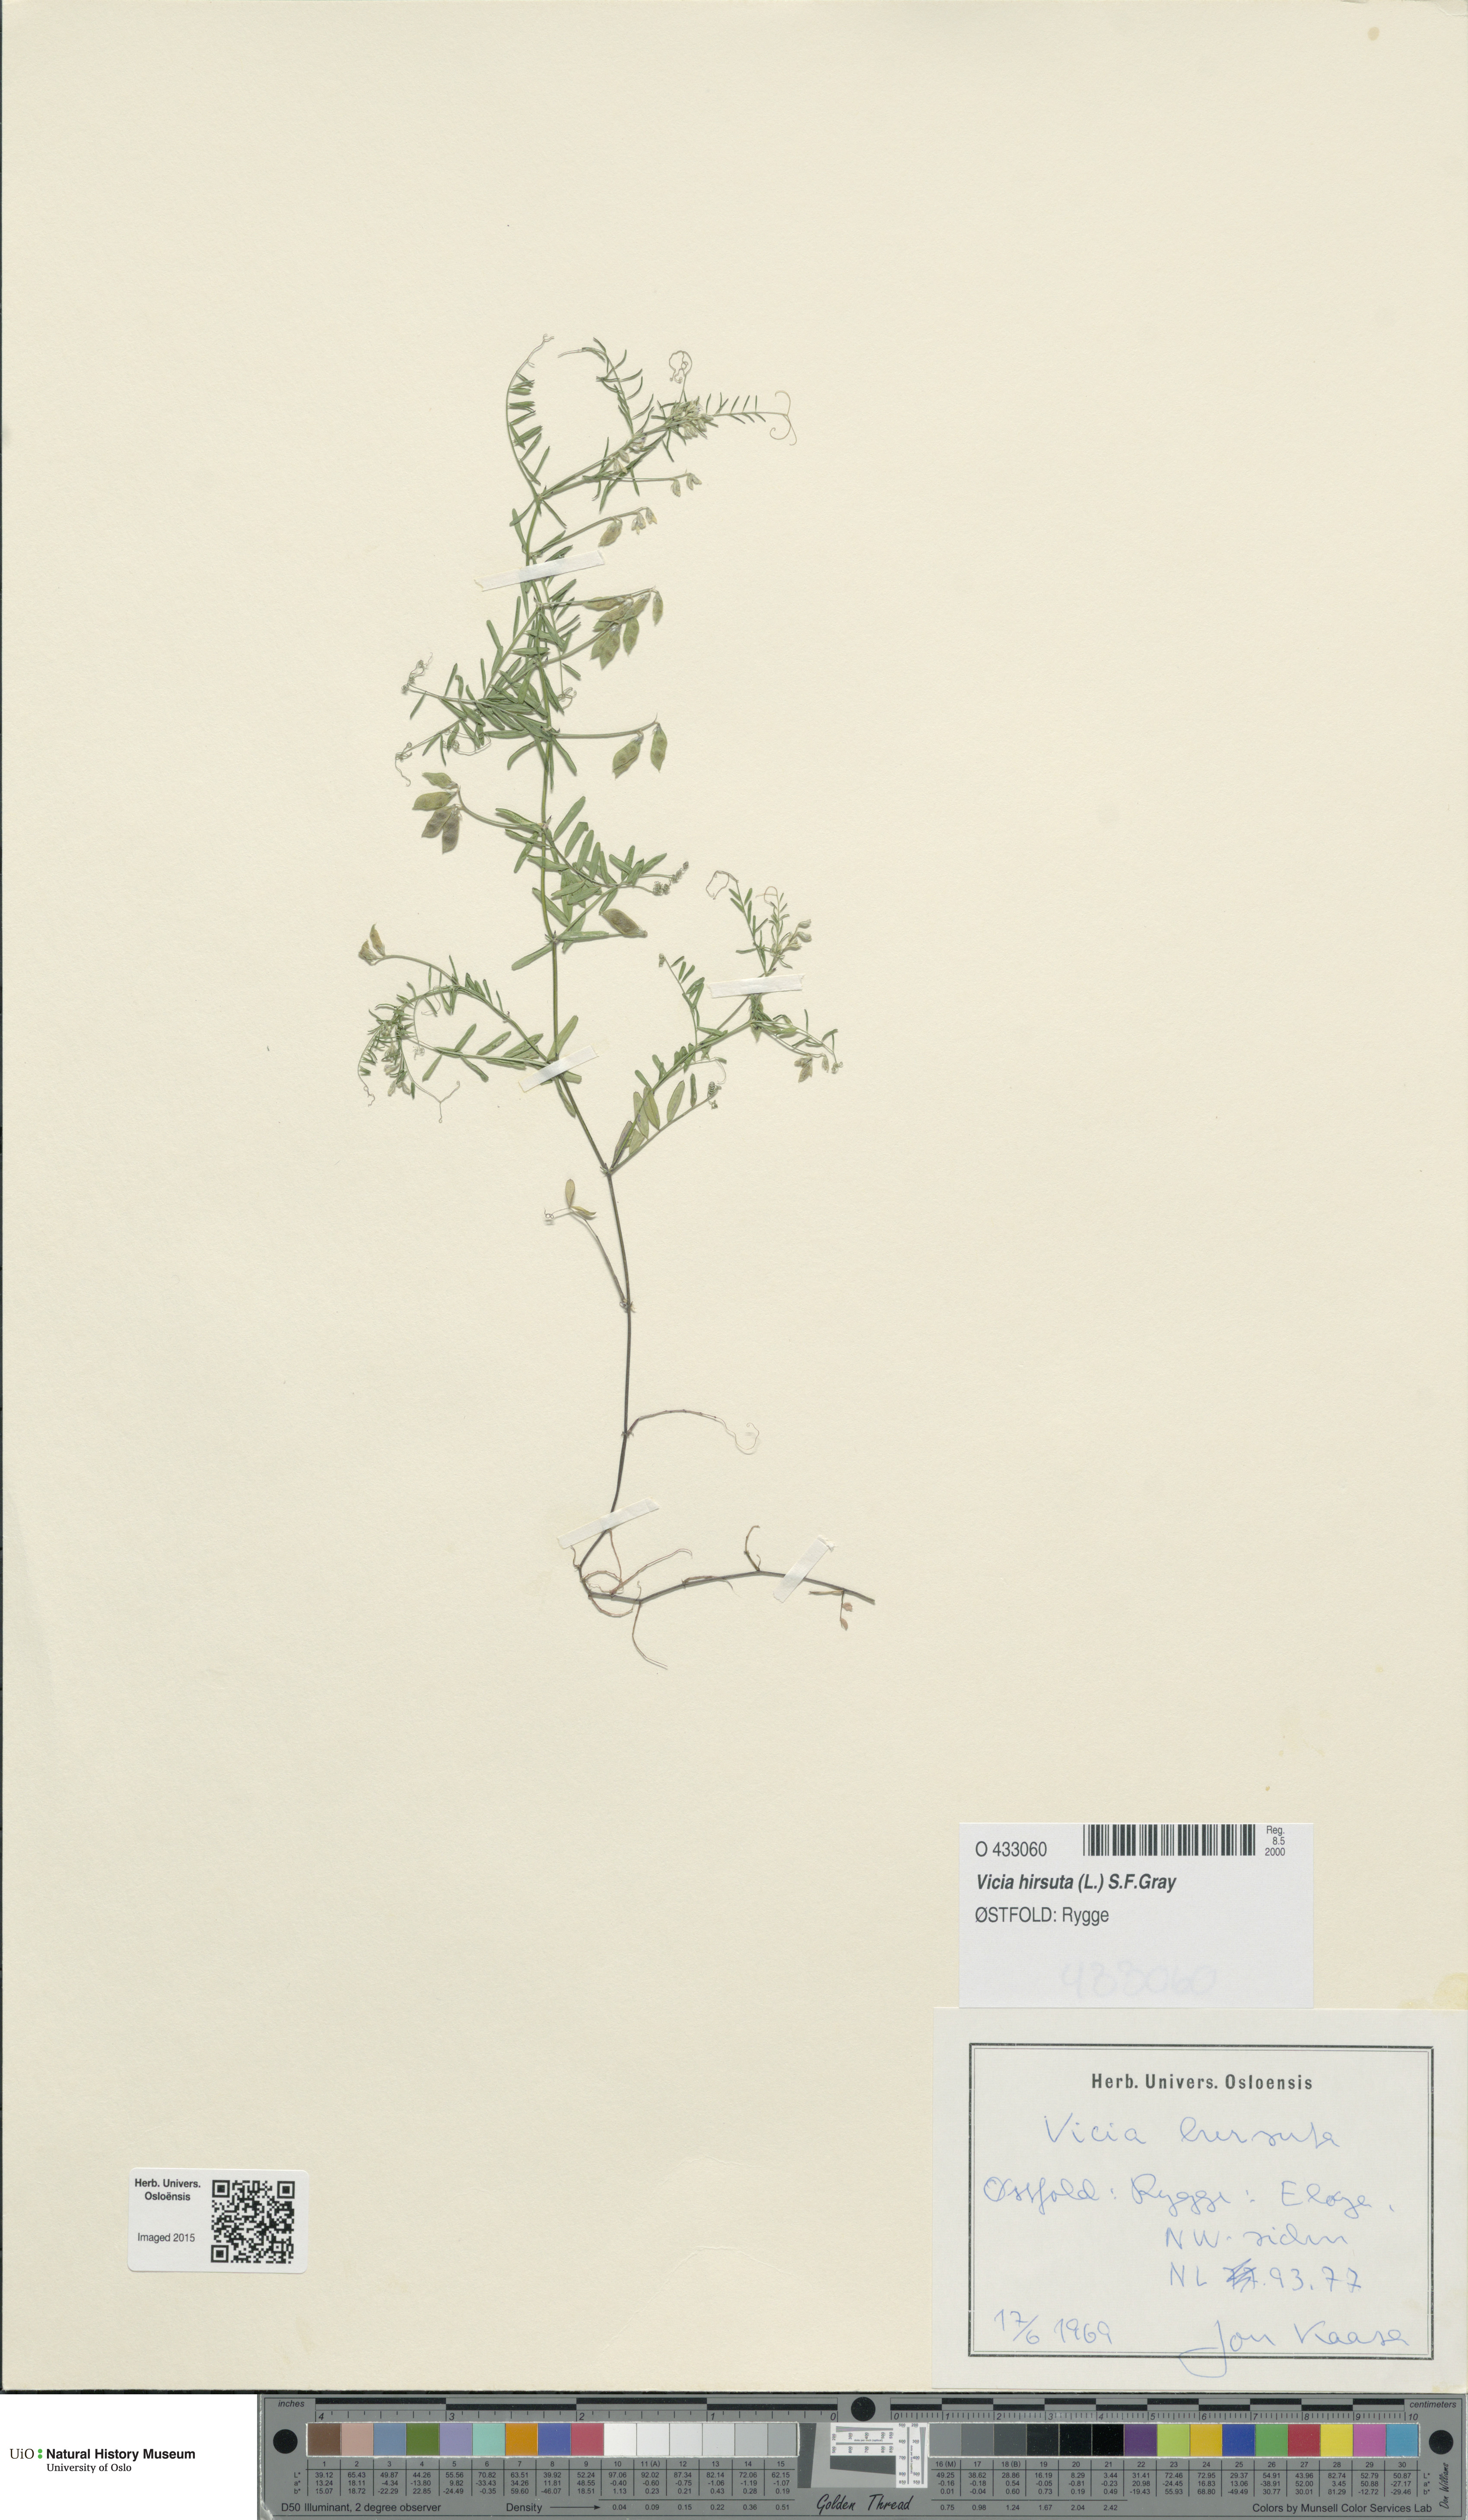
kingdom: Plantae
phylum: Tracheophyta
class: Magnoliopsida
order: Fabales
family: Fabaceae
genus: Vicia
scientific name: Vicia hirsuta
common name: Tiny vetch
